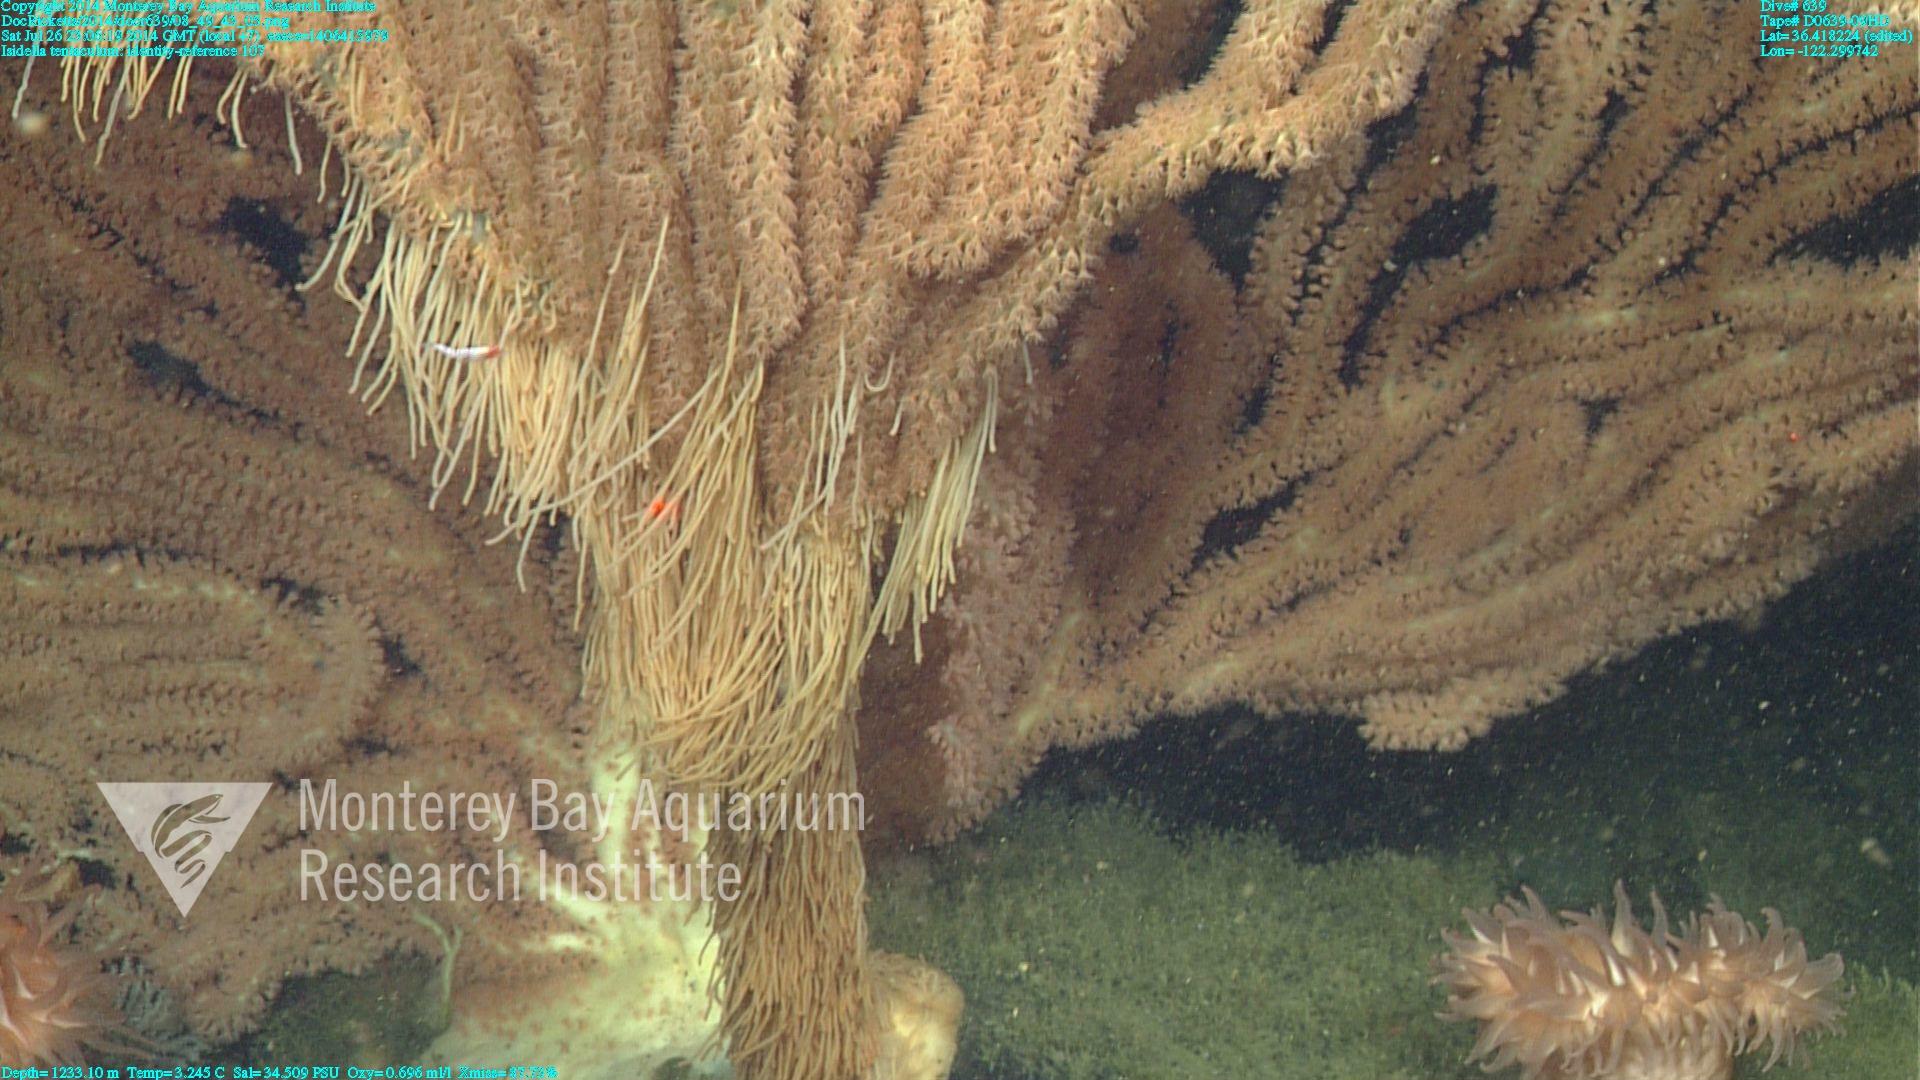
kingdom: Animalia
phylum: Cnidaria
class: Anthozoa
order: Scleralcyonacea
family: Keratoisididae
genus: Isidella
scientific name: Isidella tentaculum
